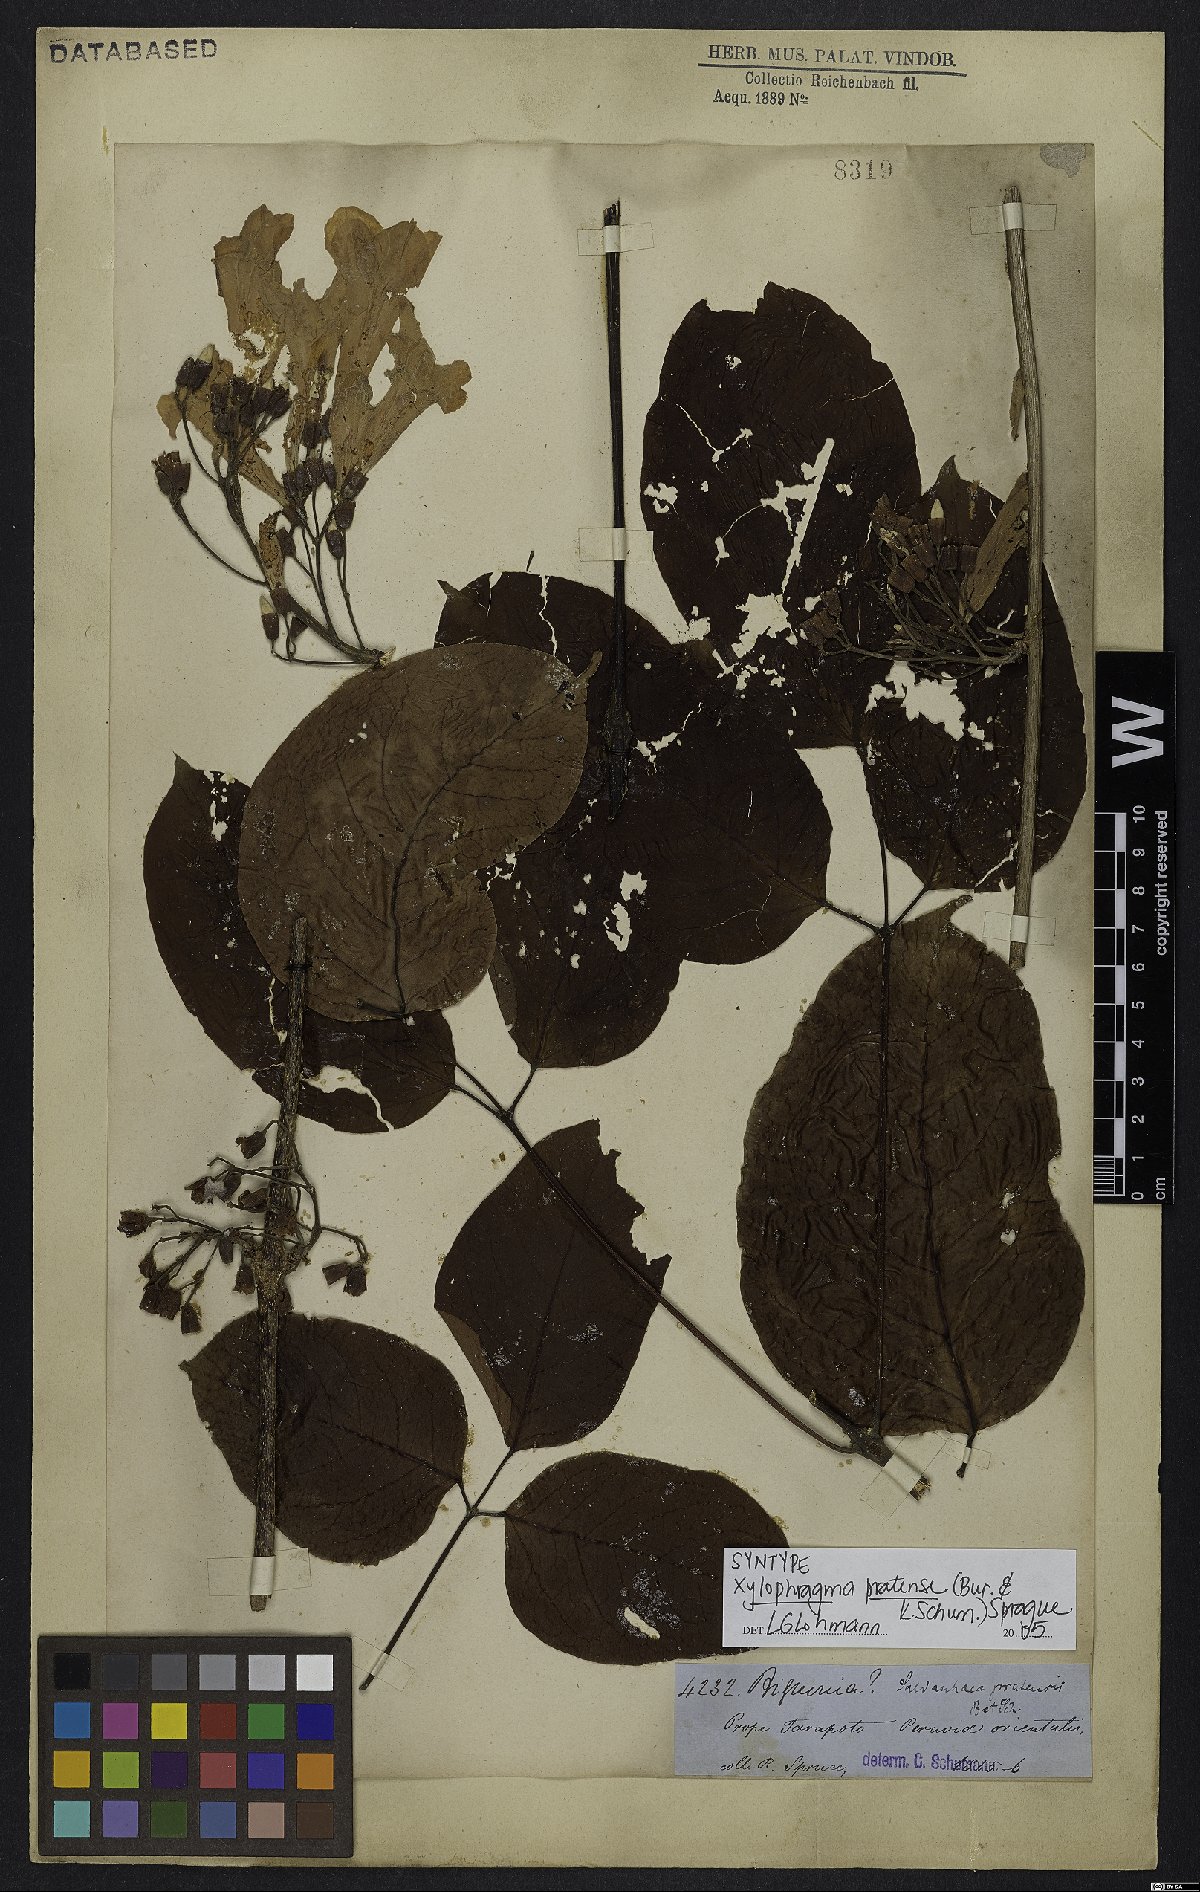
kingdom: Plantae
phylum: Tracheophyta
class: Magnoliopsida
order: Lamiales
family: Bignoniaceae
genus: Xylophragma
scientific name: Xylophragma myrianthum
